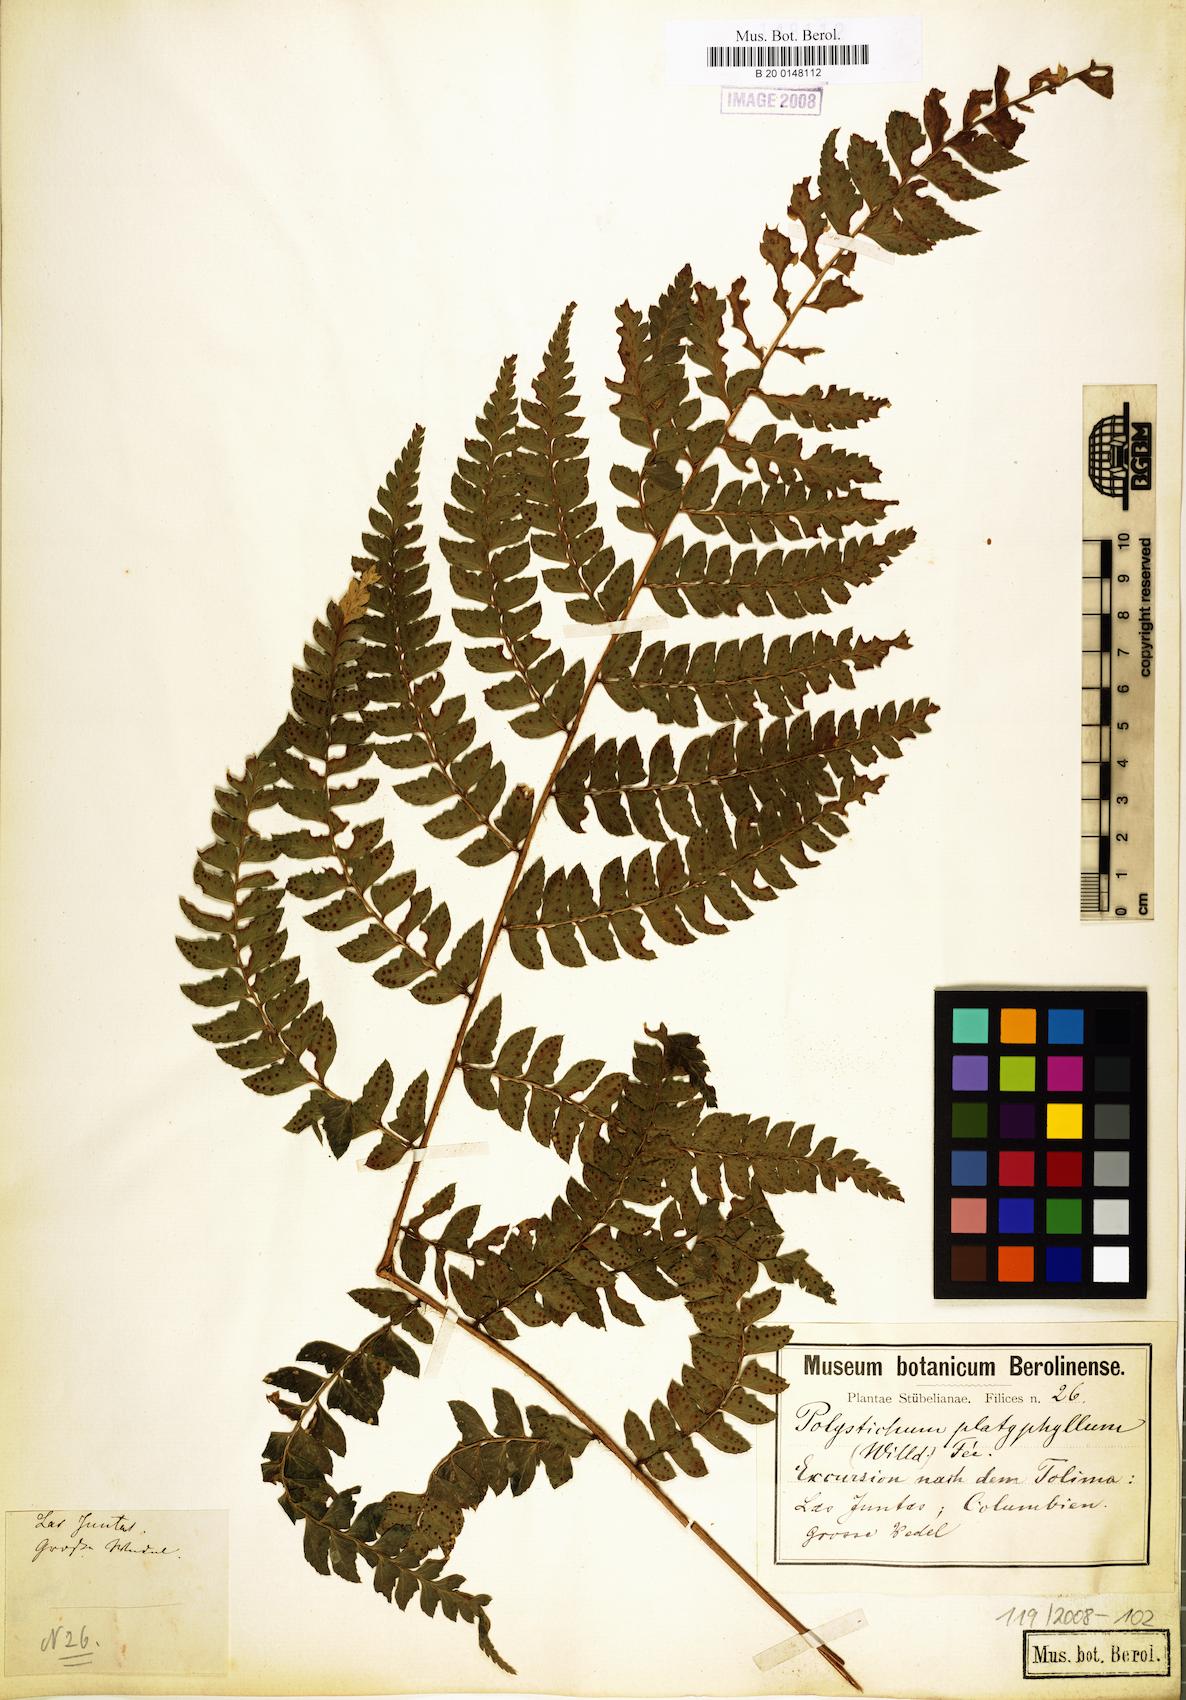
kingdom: Plantae
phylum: Tracheophyta
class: Polypodiopsida
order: Polypodiales
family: Dryopteridaceae
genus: Polystichum
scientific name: Polystichum platyphyllum
